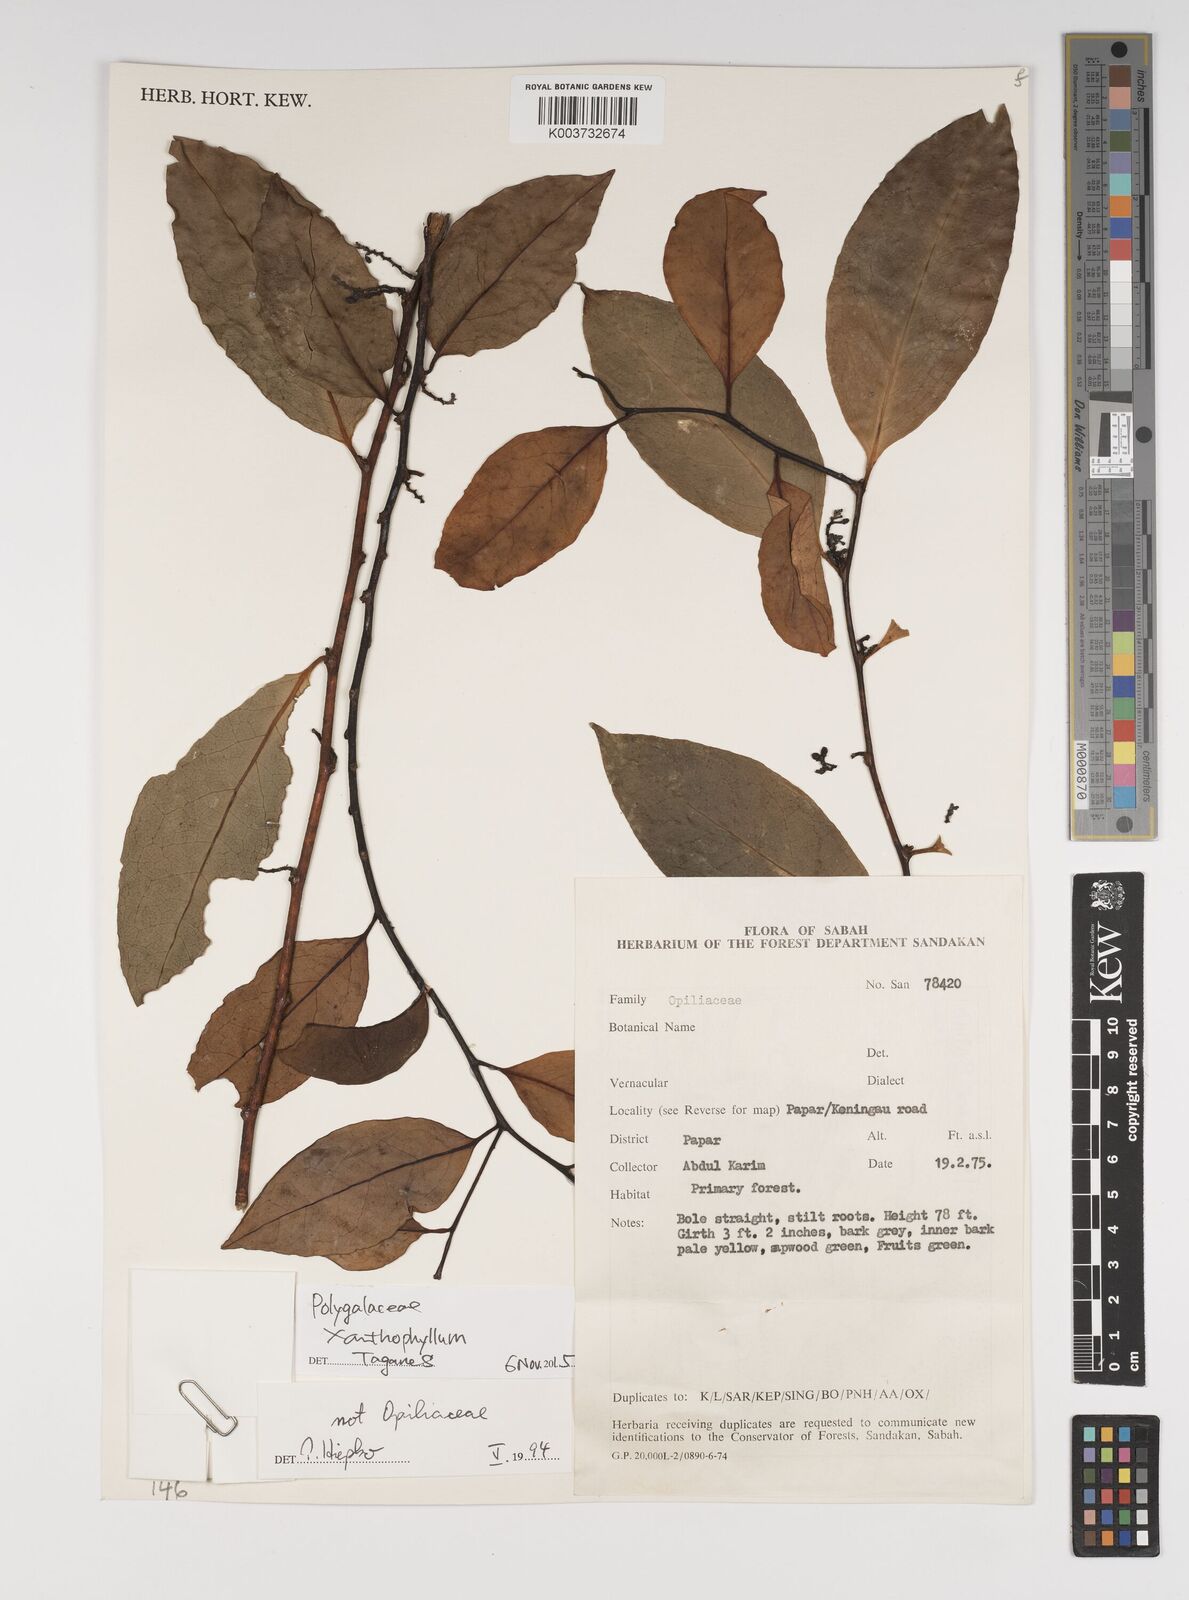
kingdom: Plantae
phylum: Tracheophyta
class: Magnoliopsida
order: Fabales
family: Polygalaceae
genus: Xanthophyllum
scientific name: Xanthophyllum
